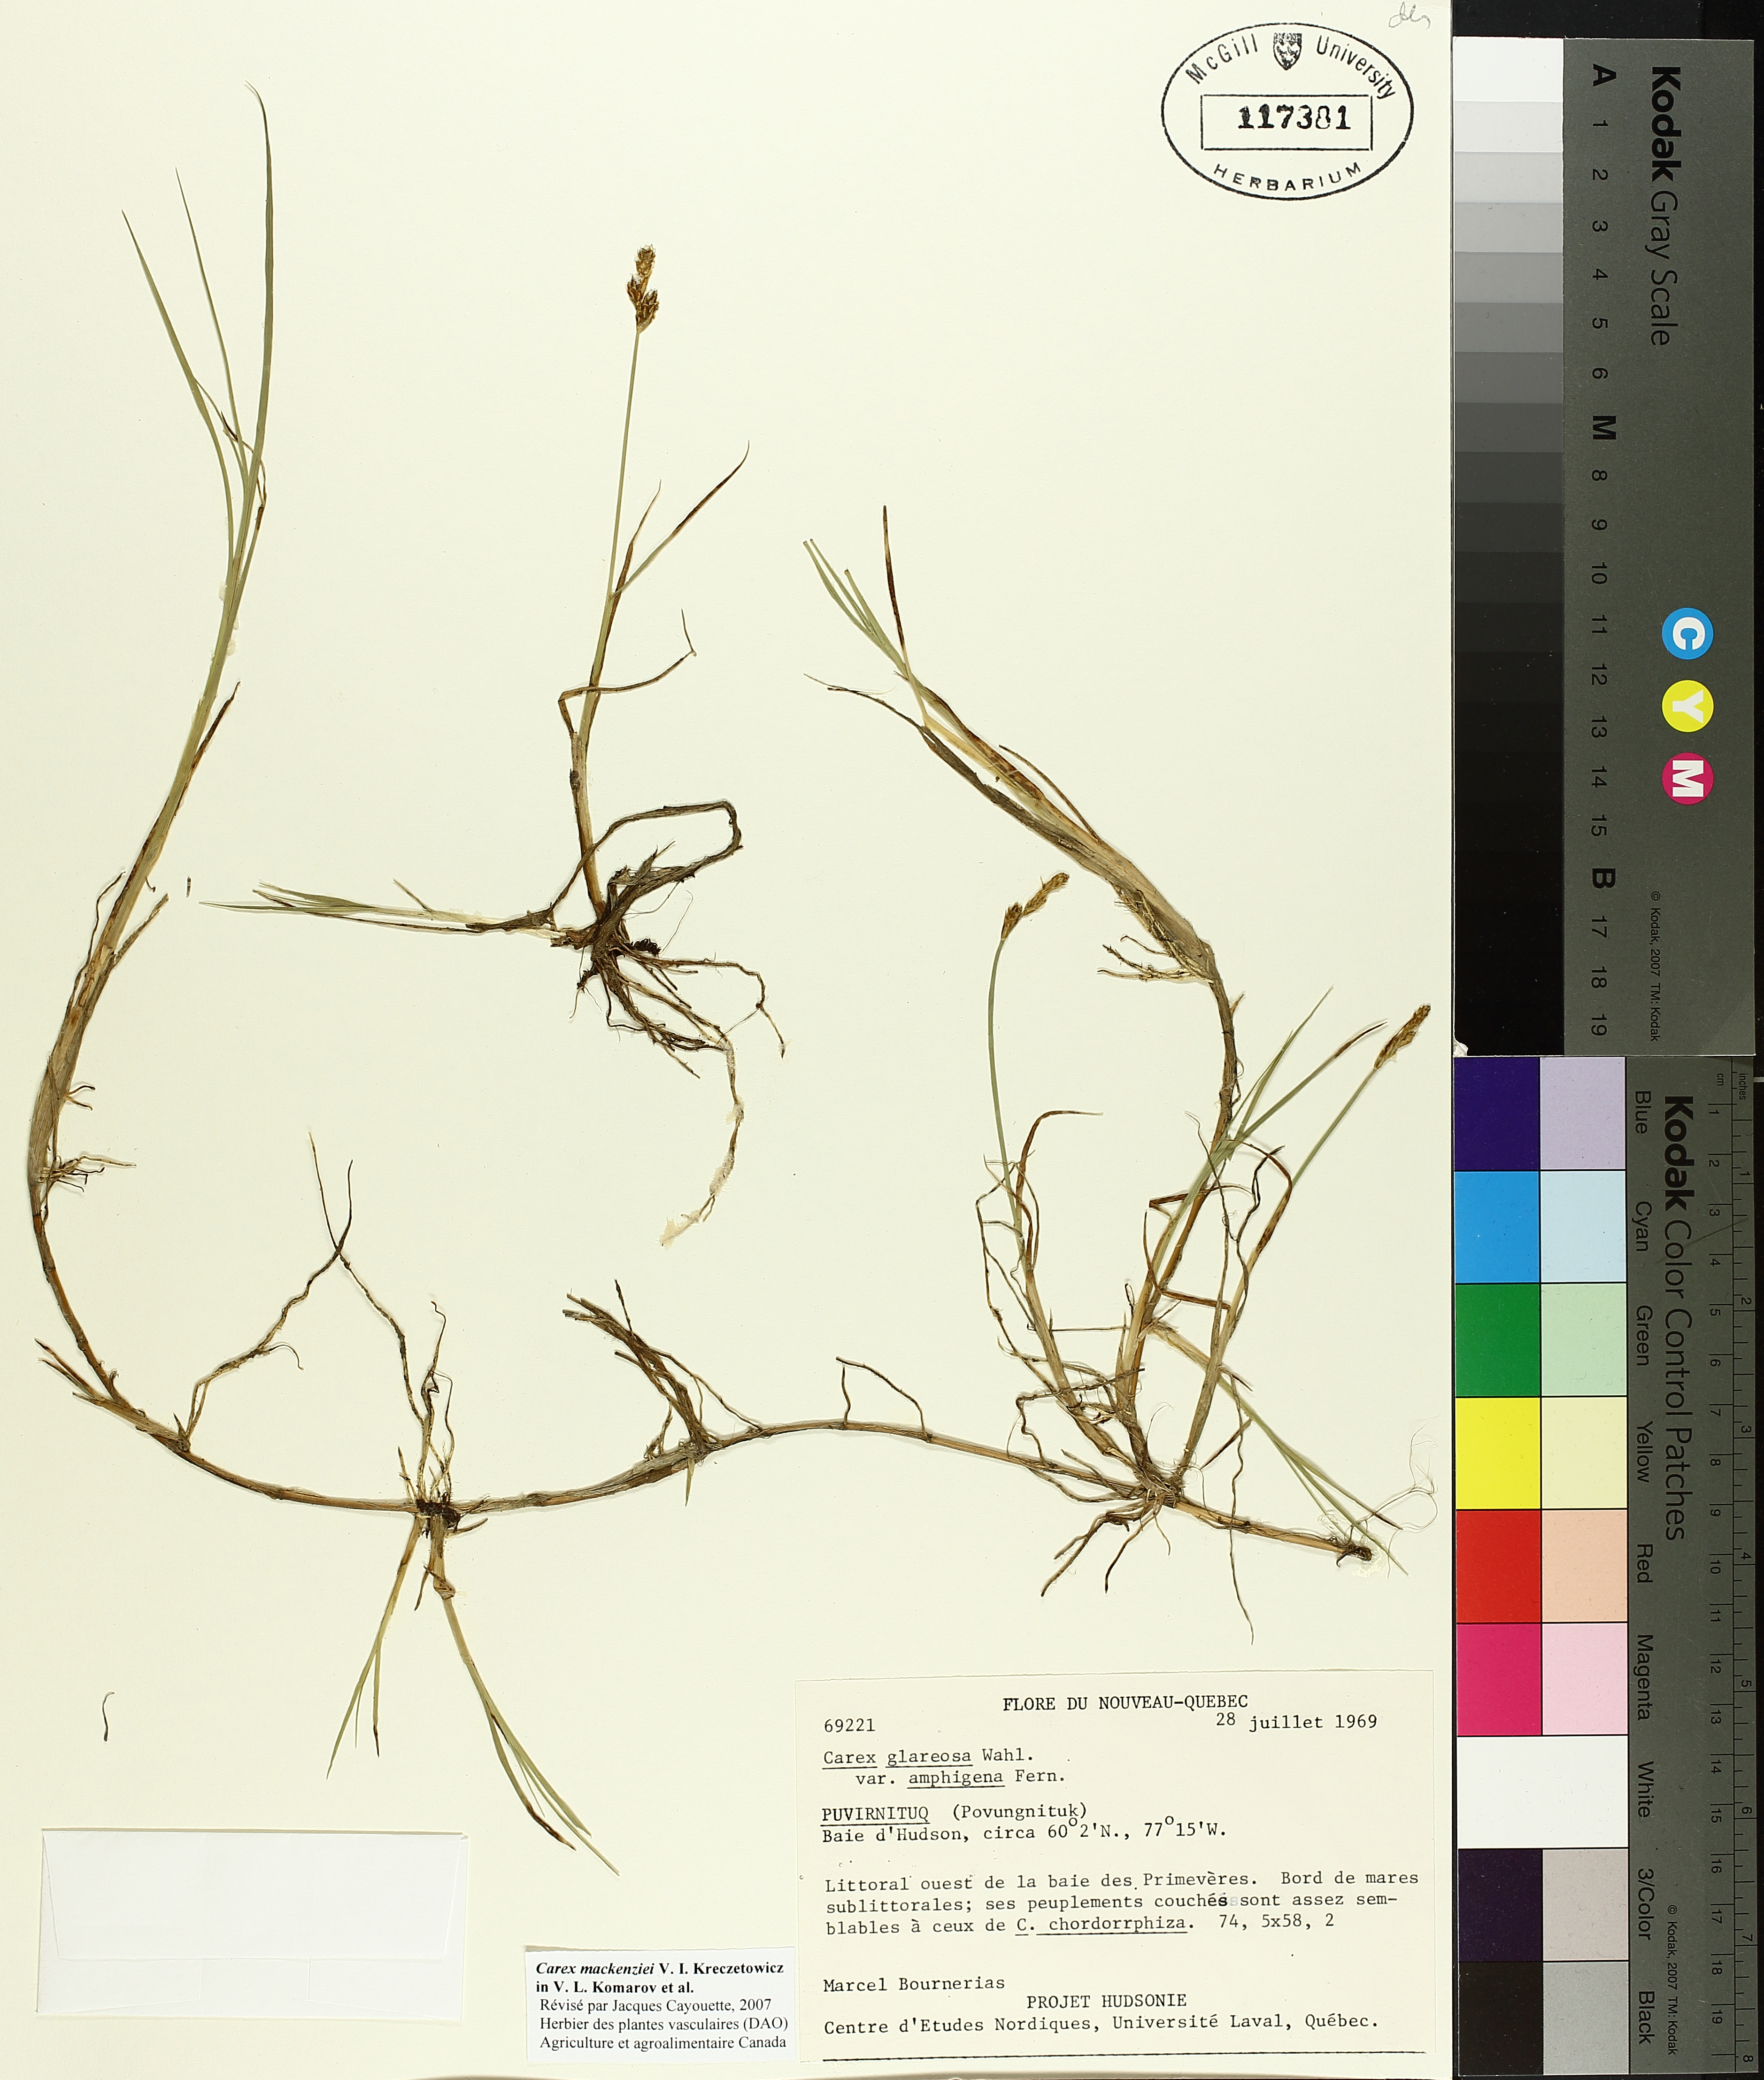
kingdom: Plantae
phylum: Tracheophyta
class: Liliopsida
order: Poales
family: Cyperaceae
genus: Carex
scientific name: Carex mackenziei
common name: Mackenzie's sedge
